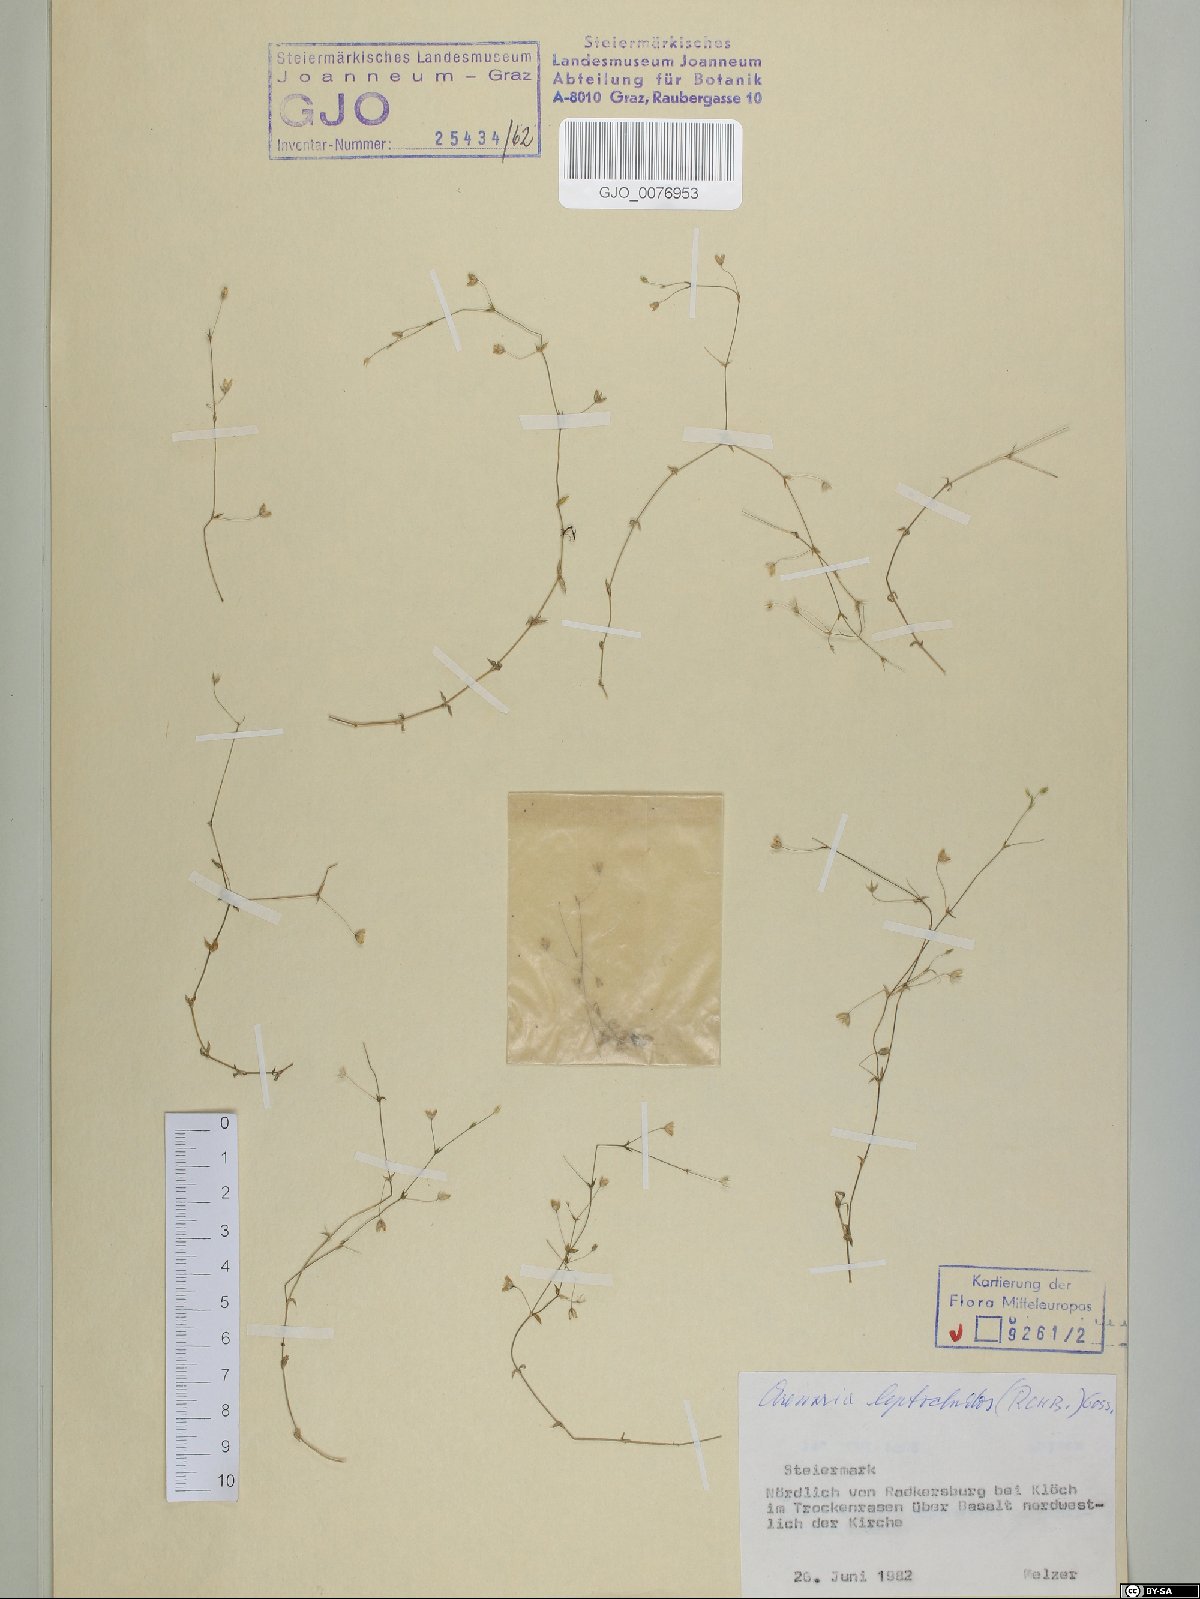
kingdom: Plantae
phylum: Tracheophyta
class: Magnoliopsida
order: Caryophyllales
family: Caryophyllaceae
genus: Arenaria
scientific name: Arenaria leptoclados
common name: Thyme-leaved sandwort
